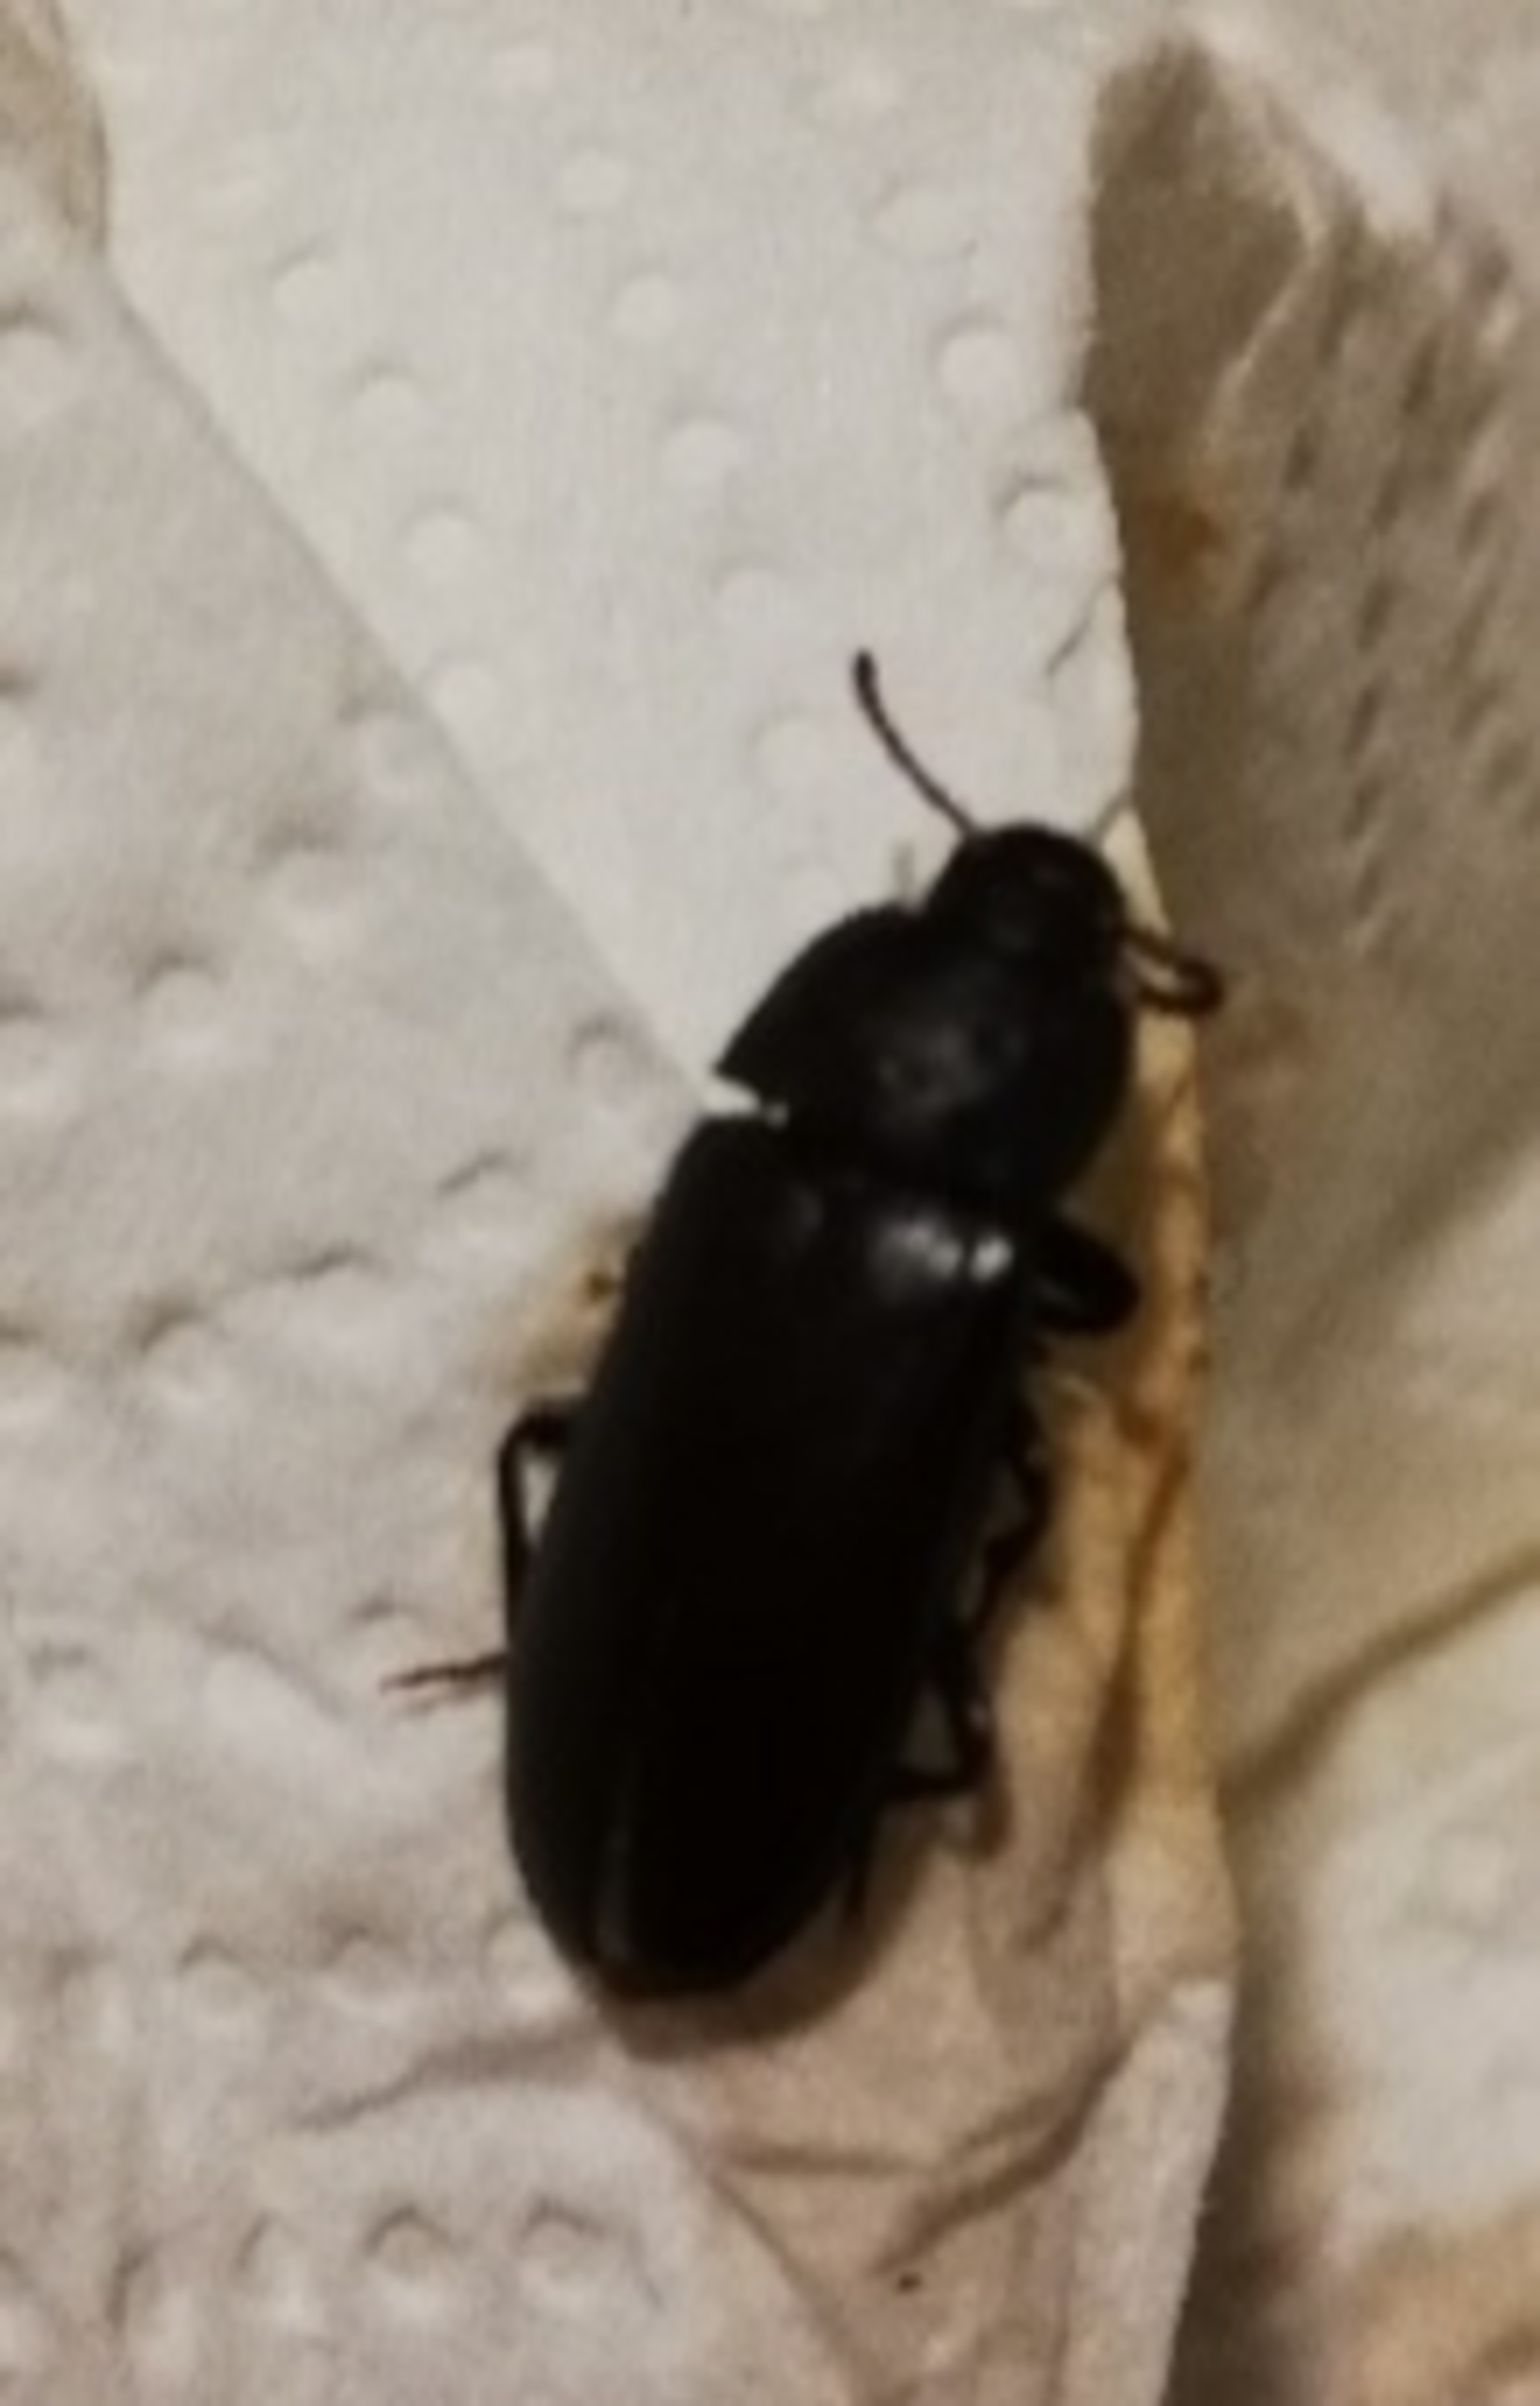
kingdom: Animalia
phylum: Arthropoda
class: Insecta
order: Coleoptera
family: Tenebrionidae
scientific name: Tenebrionidae
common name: Skyggebiller
